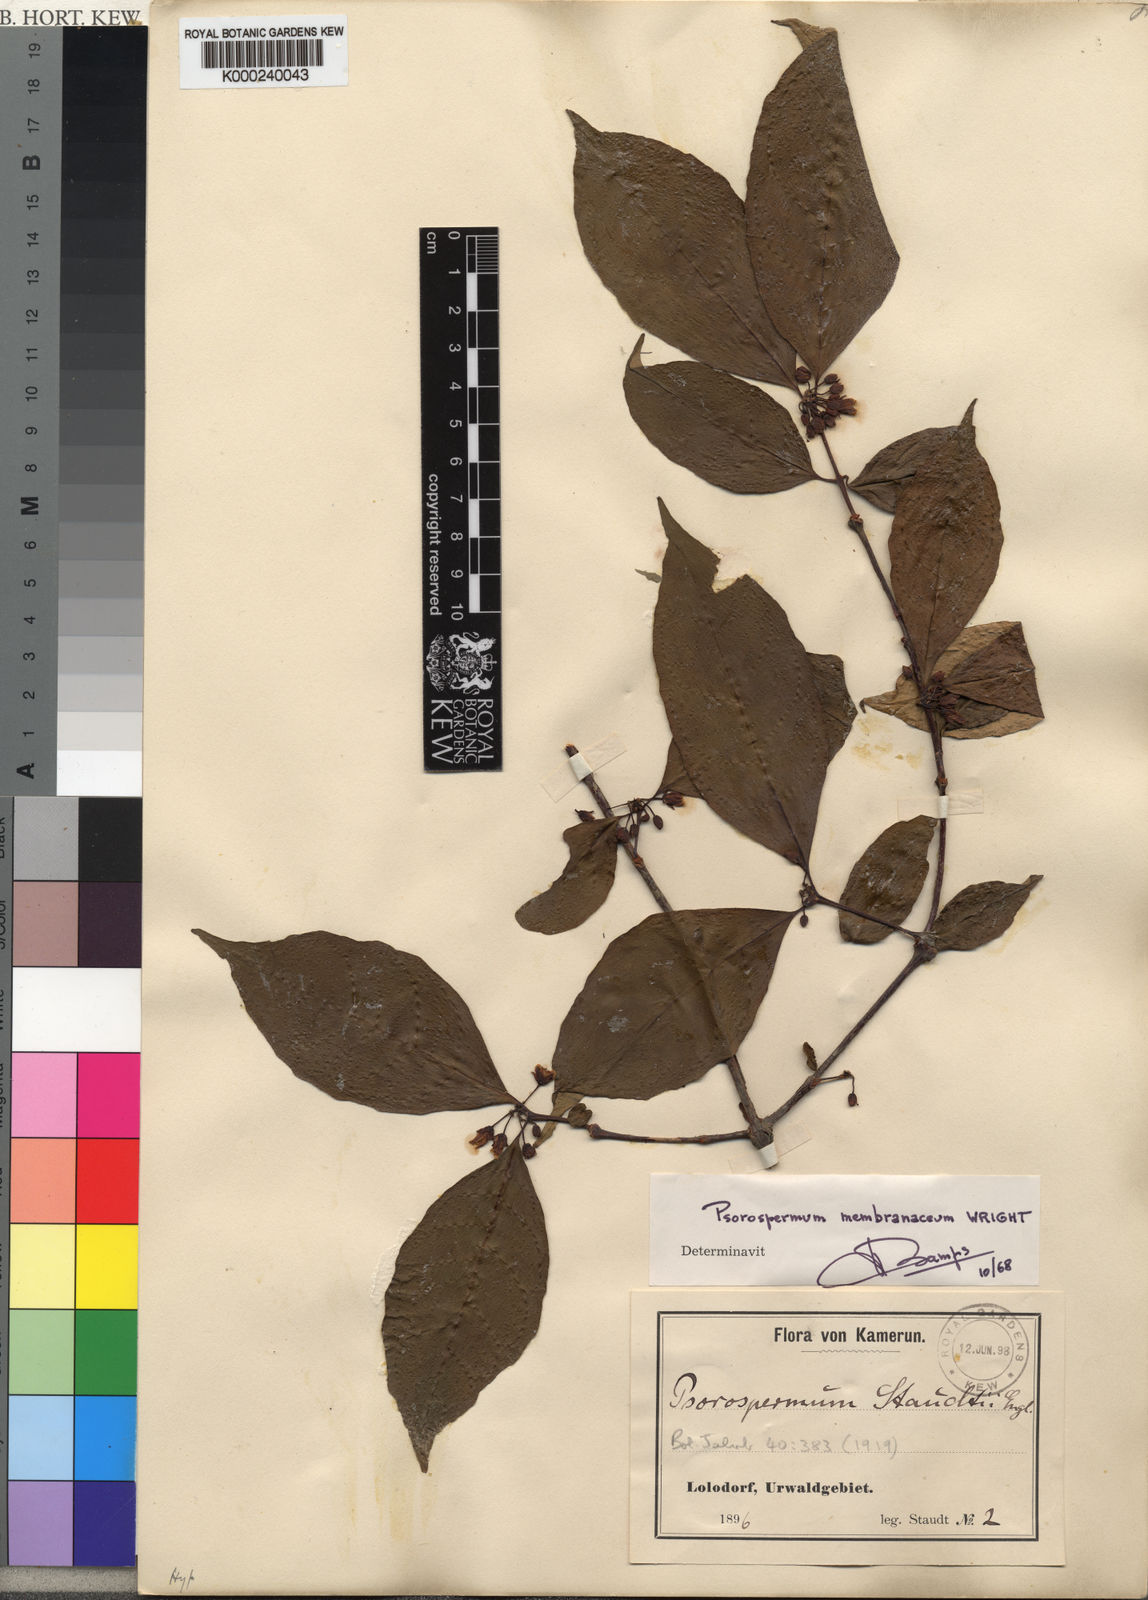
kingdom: Plantae
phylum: Tracheophyta
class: Magnoliopsida
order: Malpighiales
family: Hypericaceae
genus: Psorospermum
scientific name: Psorospermum membranaceum
